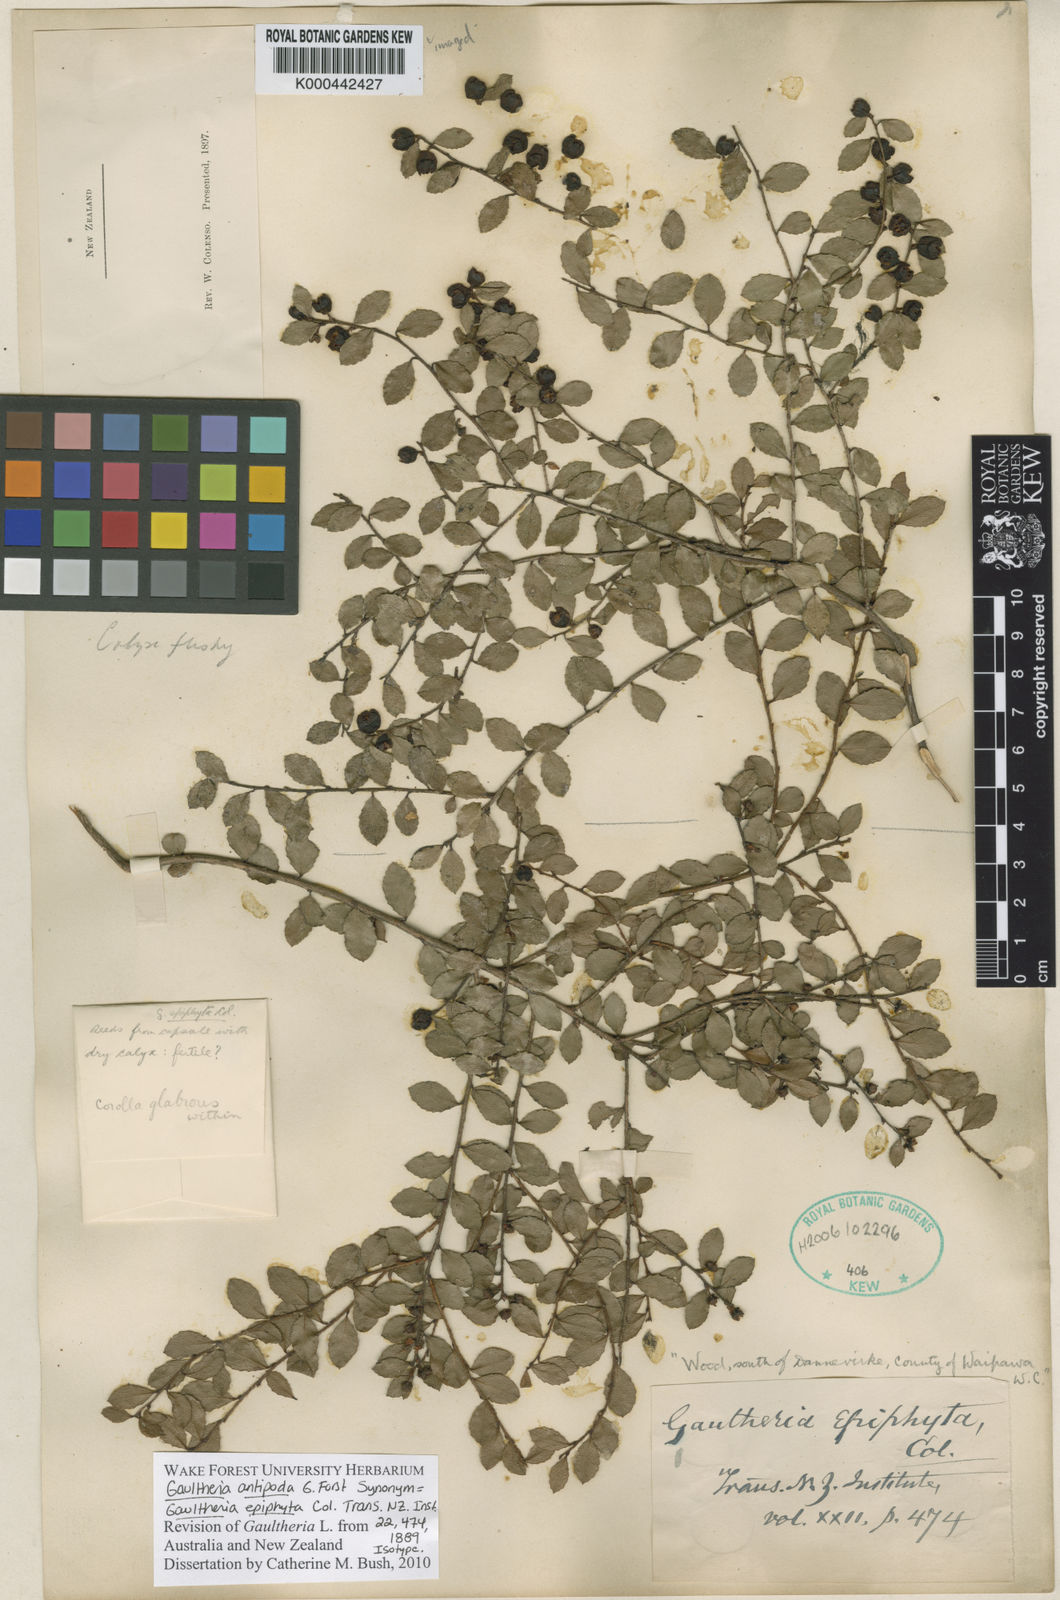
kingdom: Plantae
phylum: Tracheophyta
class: Magnoliopsida
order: Ericales
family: Ericaceae
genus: Gaultheria
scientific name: Gaultheria antipoda
